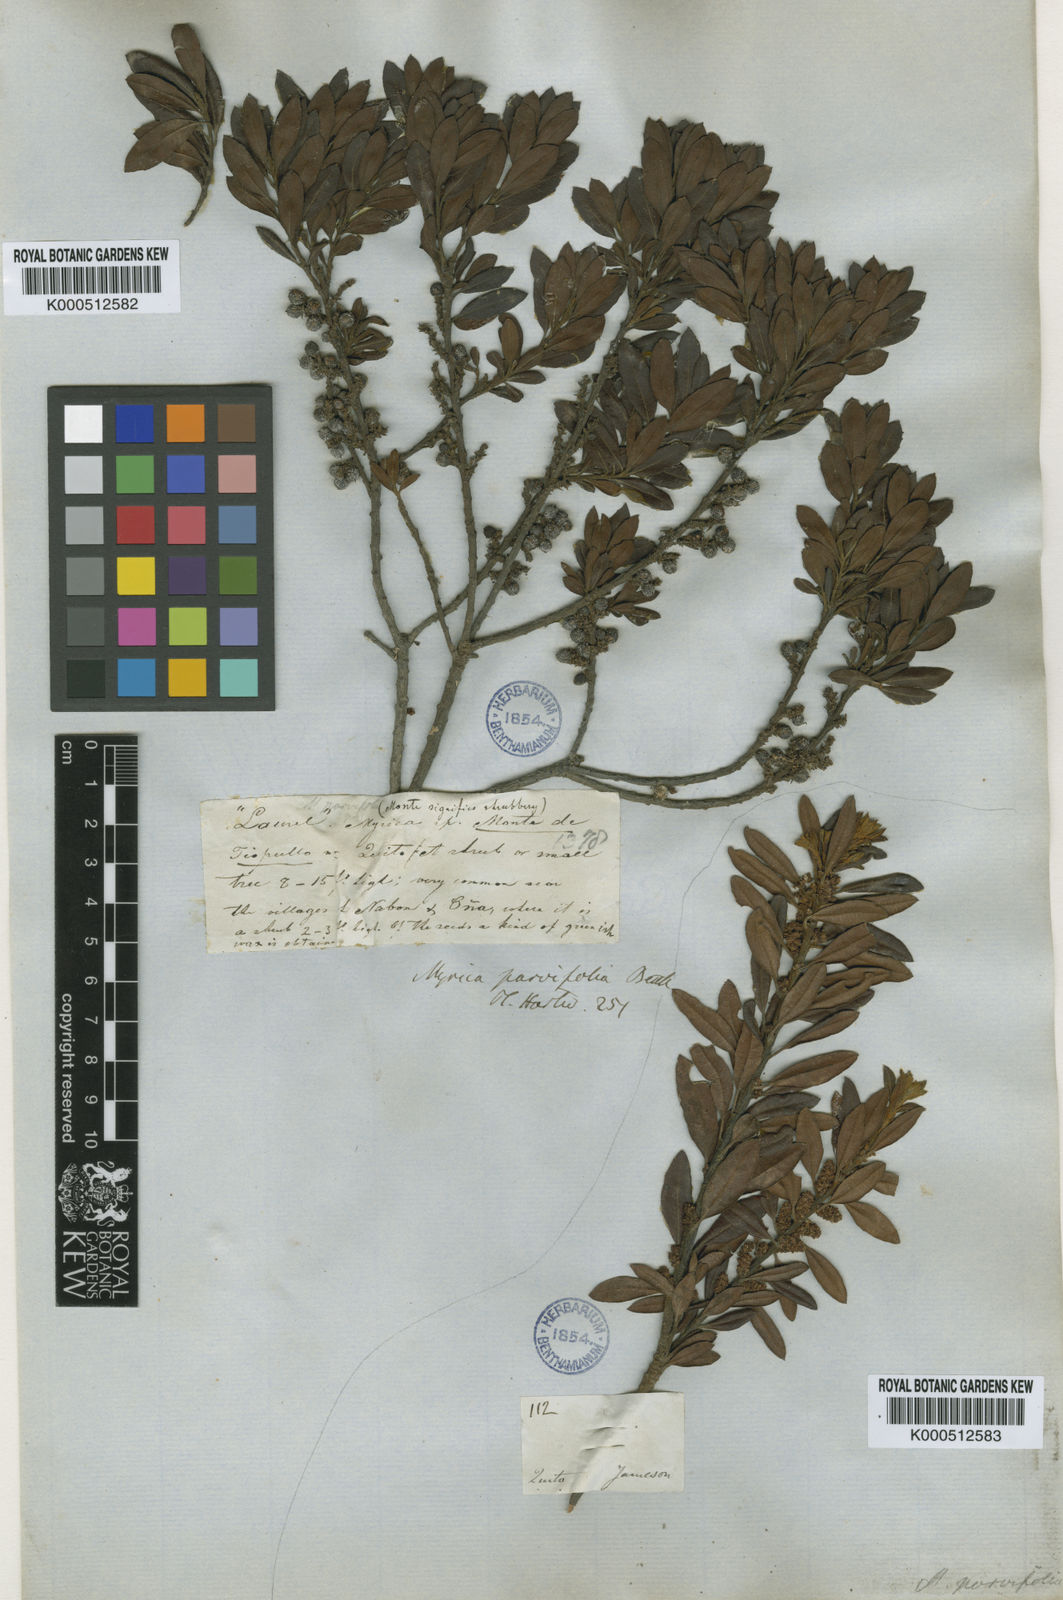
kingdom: Plantae
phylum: Tracheophyta
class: Magnoliopsida
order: Fagales
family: Myricaceae
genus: Morella
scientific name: Morella parvifolia
